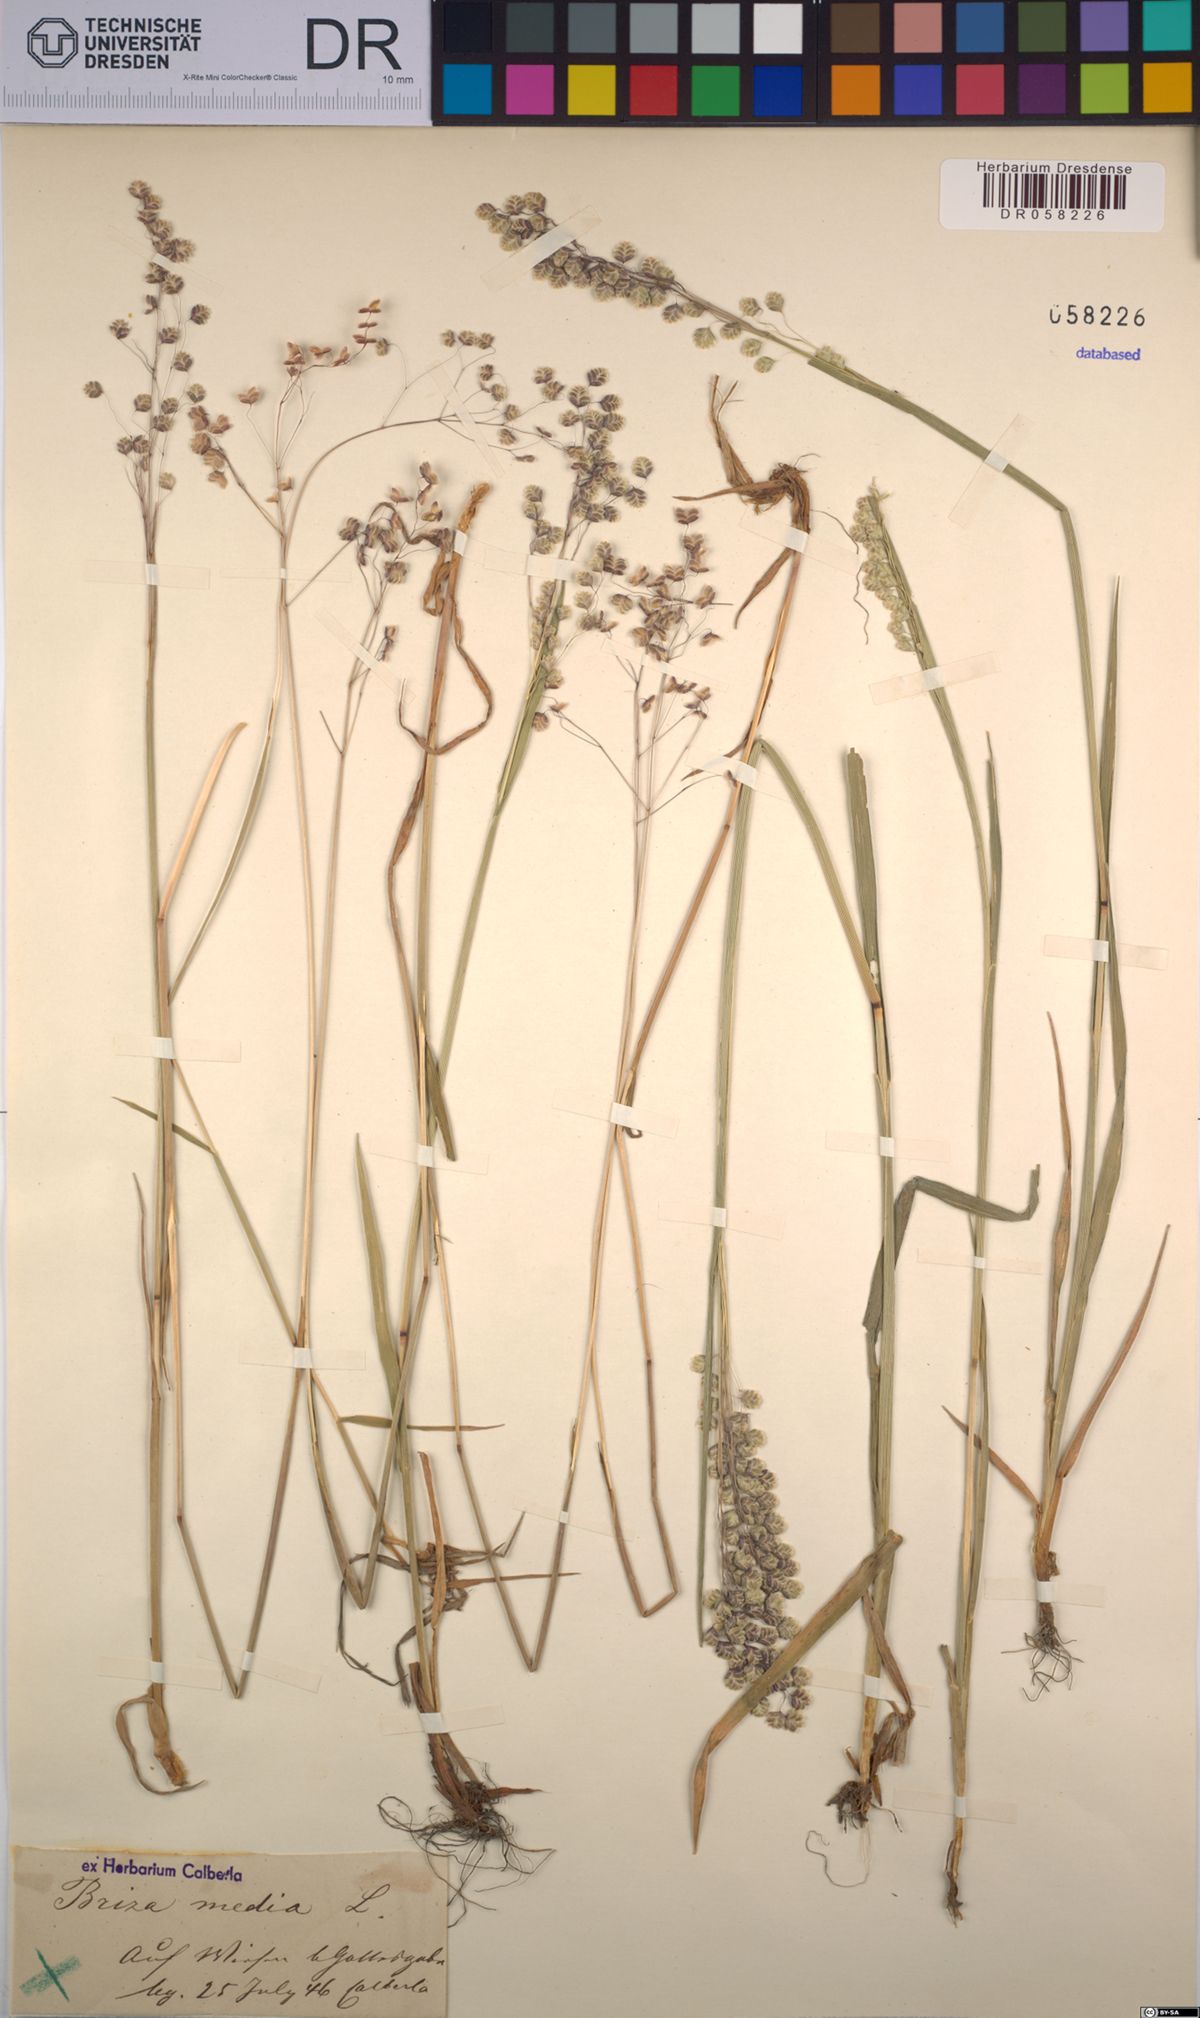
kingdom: Plantae
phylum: Tracheophyta
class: Liliopsida
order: Poales
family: Poaceae
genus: Briza
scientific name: Briza media
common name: Quaking grass
